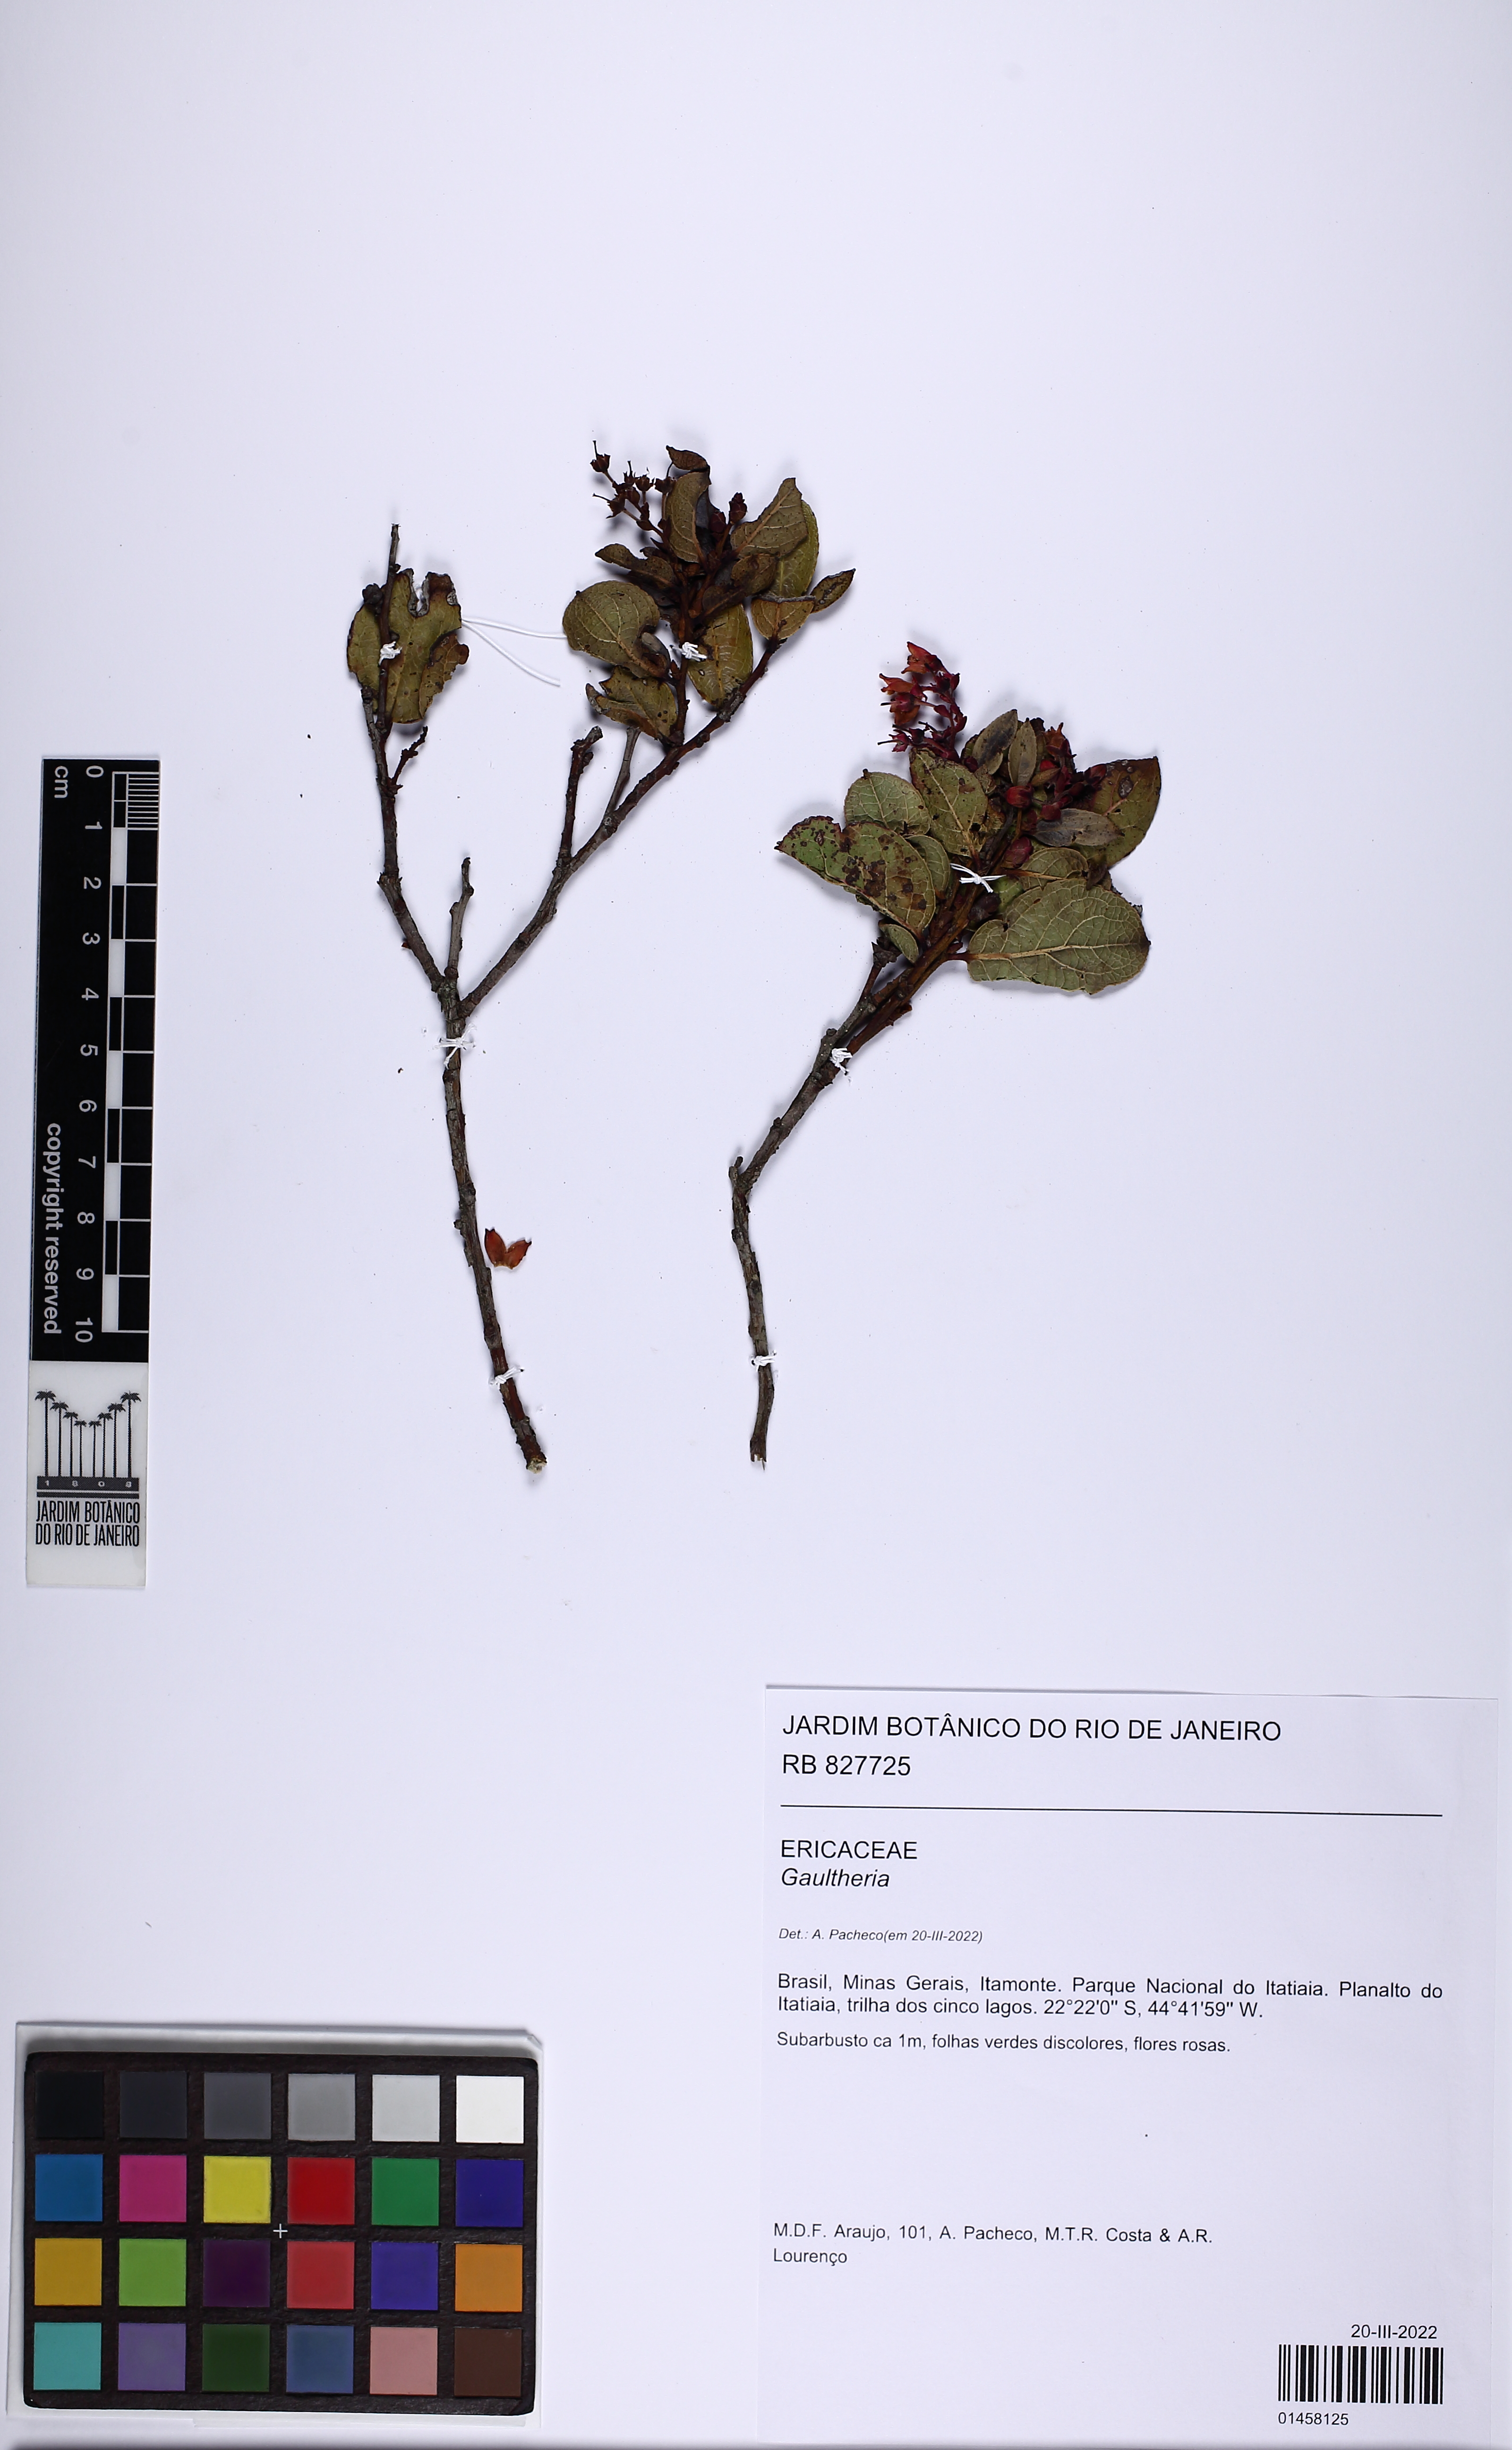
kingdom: Plantae
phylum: Tracheophyta
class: Magnoliopsida
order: Ericales
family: Ericaceae
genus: Gaultheria
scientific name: Gaultheria
